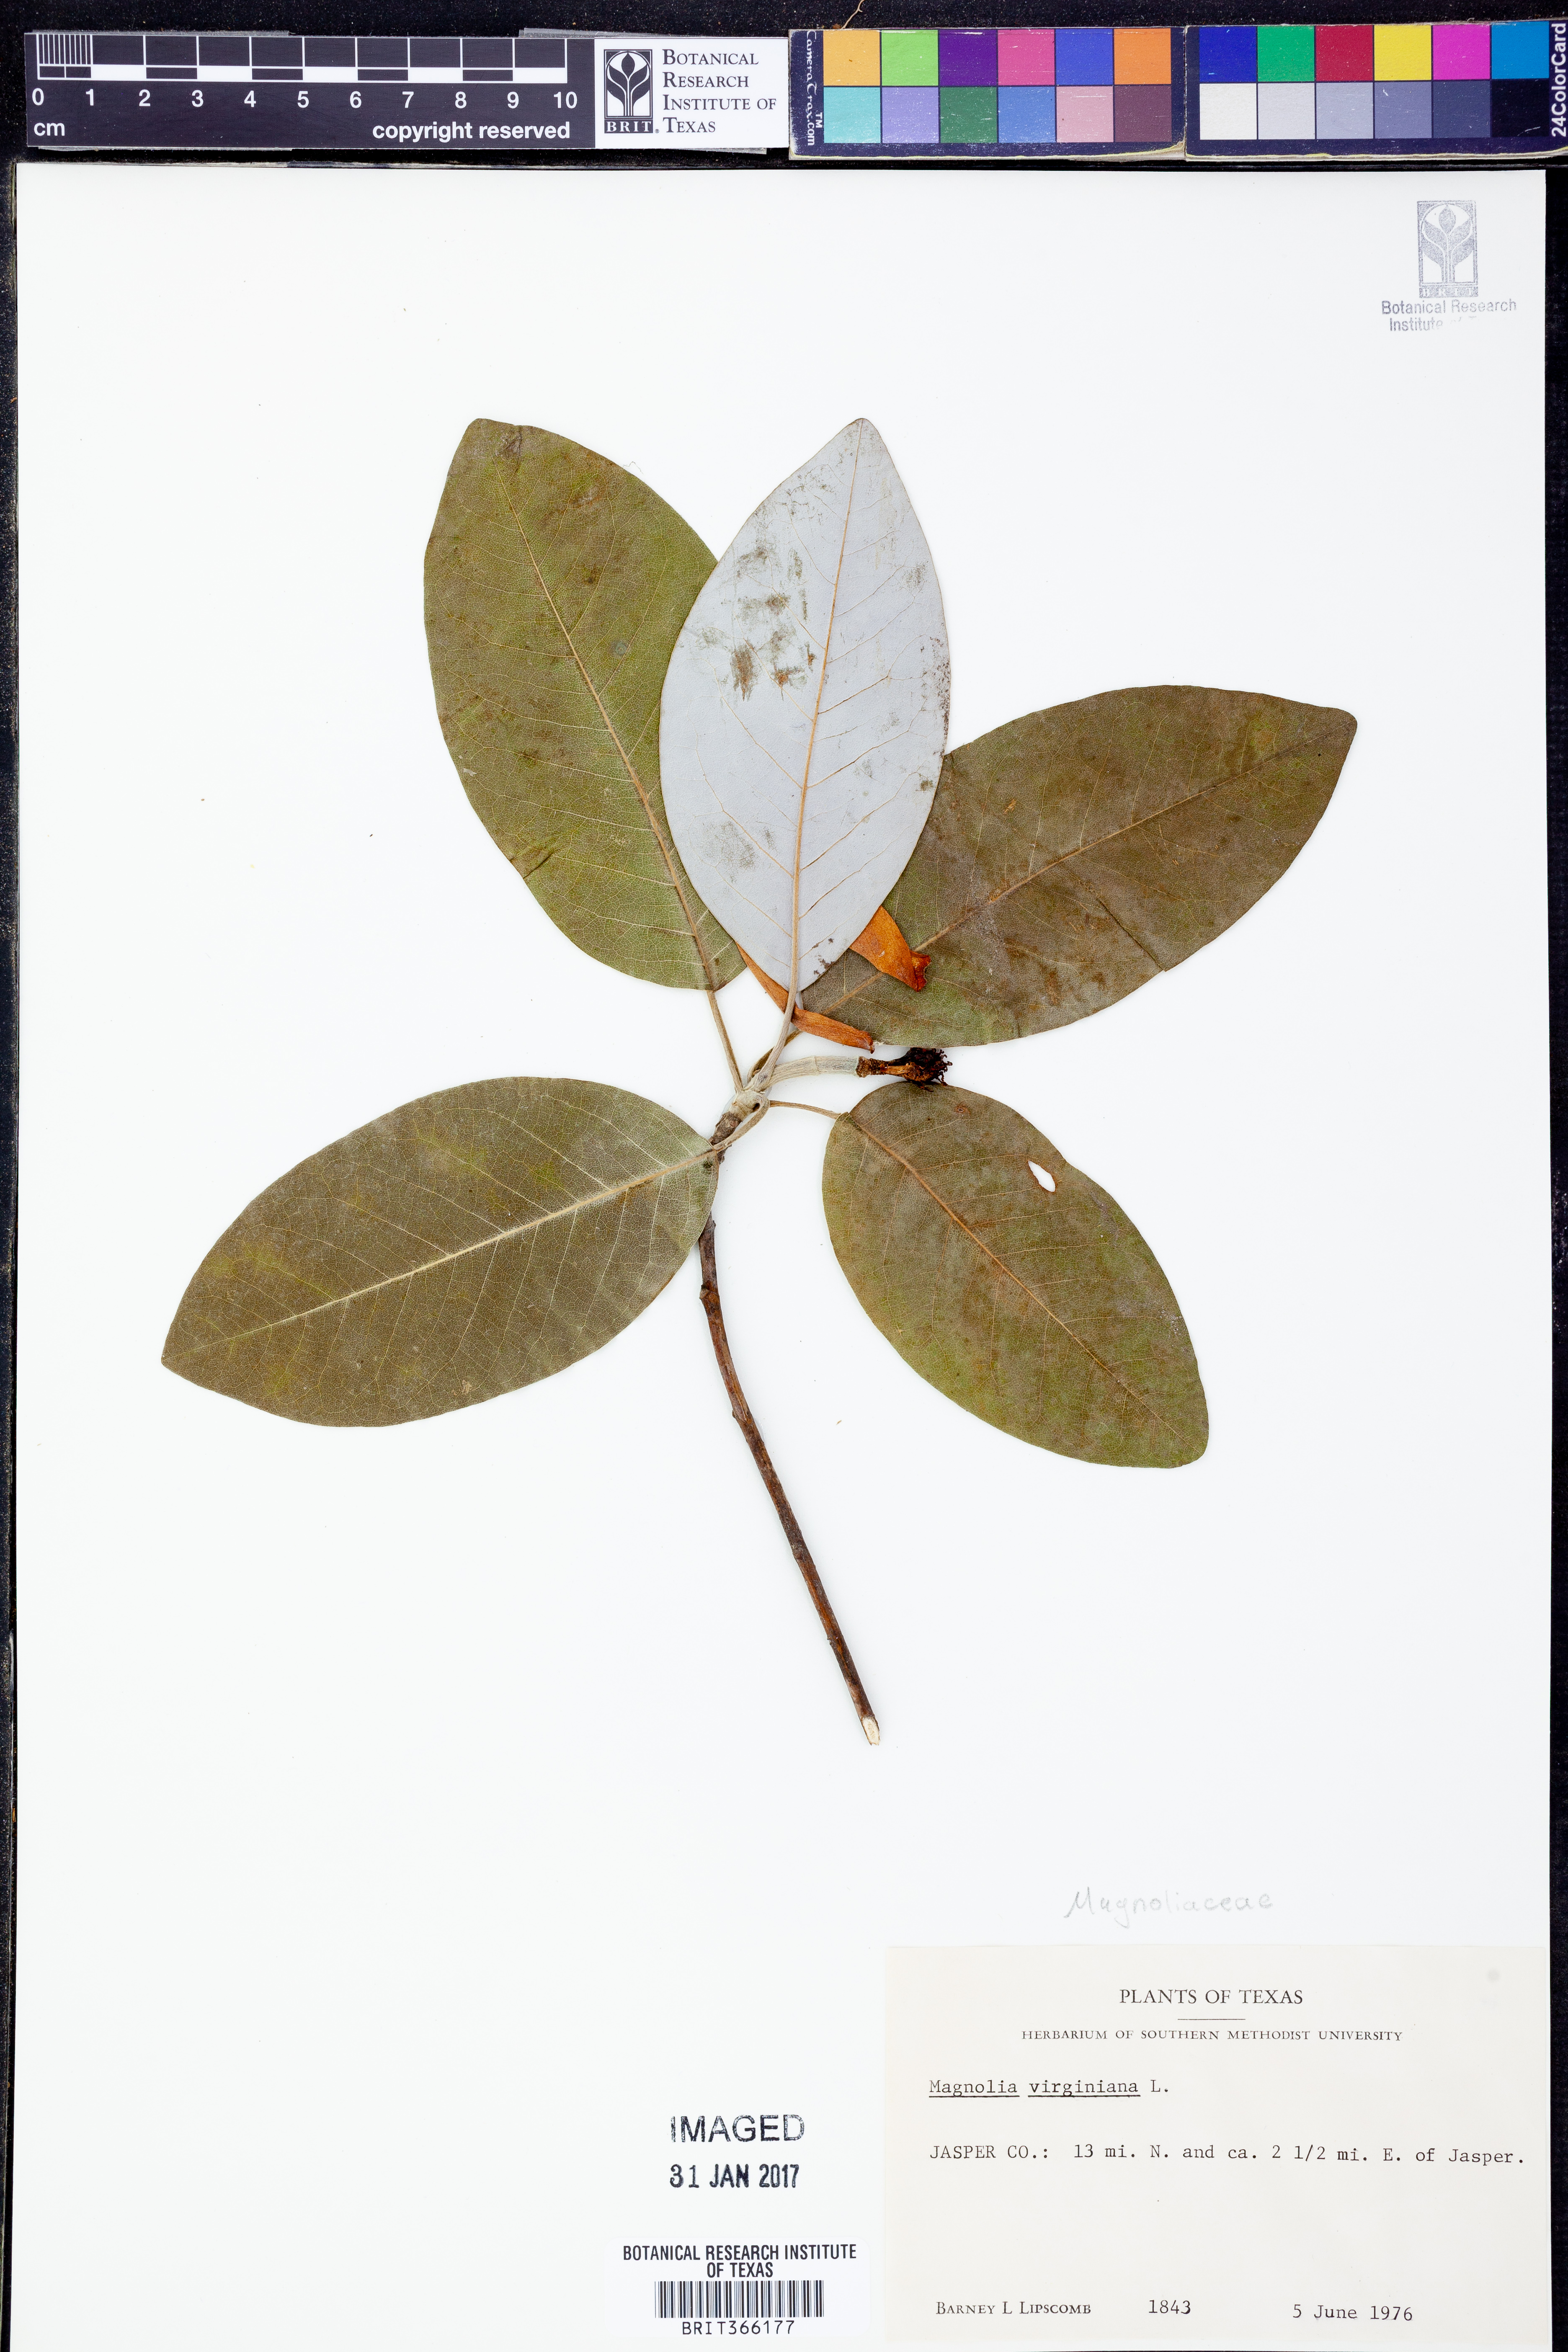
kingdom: Plantae
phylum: Tracheophyta
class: Magnoliopsida
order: Magnoliales
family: Magnoliaceae
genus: Magnolia
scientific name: Magnolia virginiana
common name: Swamp bay
